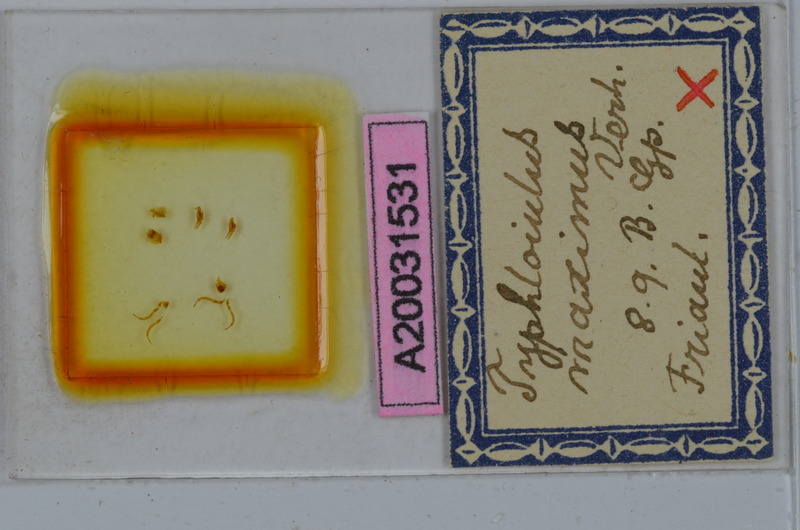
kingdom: Animalia
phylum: Arthropoda
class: Diplopoda
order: Julida
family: Julidae
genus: Stygiiulus
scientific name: Stygiiulus maximus
